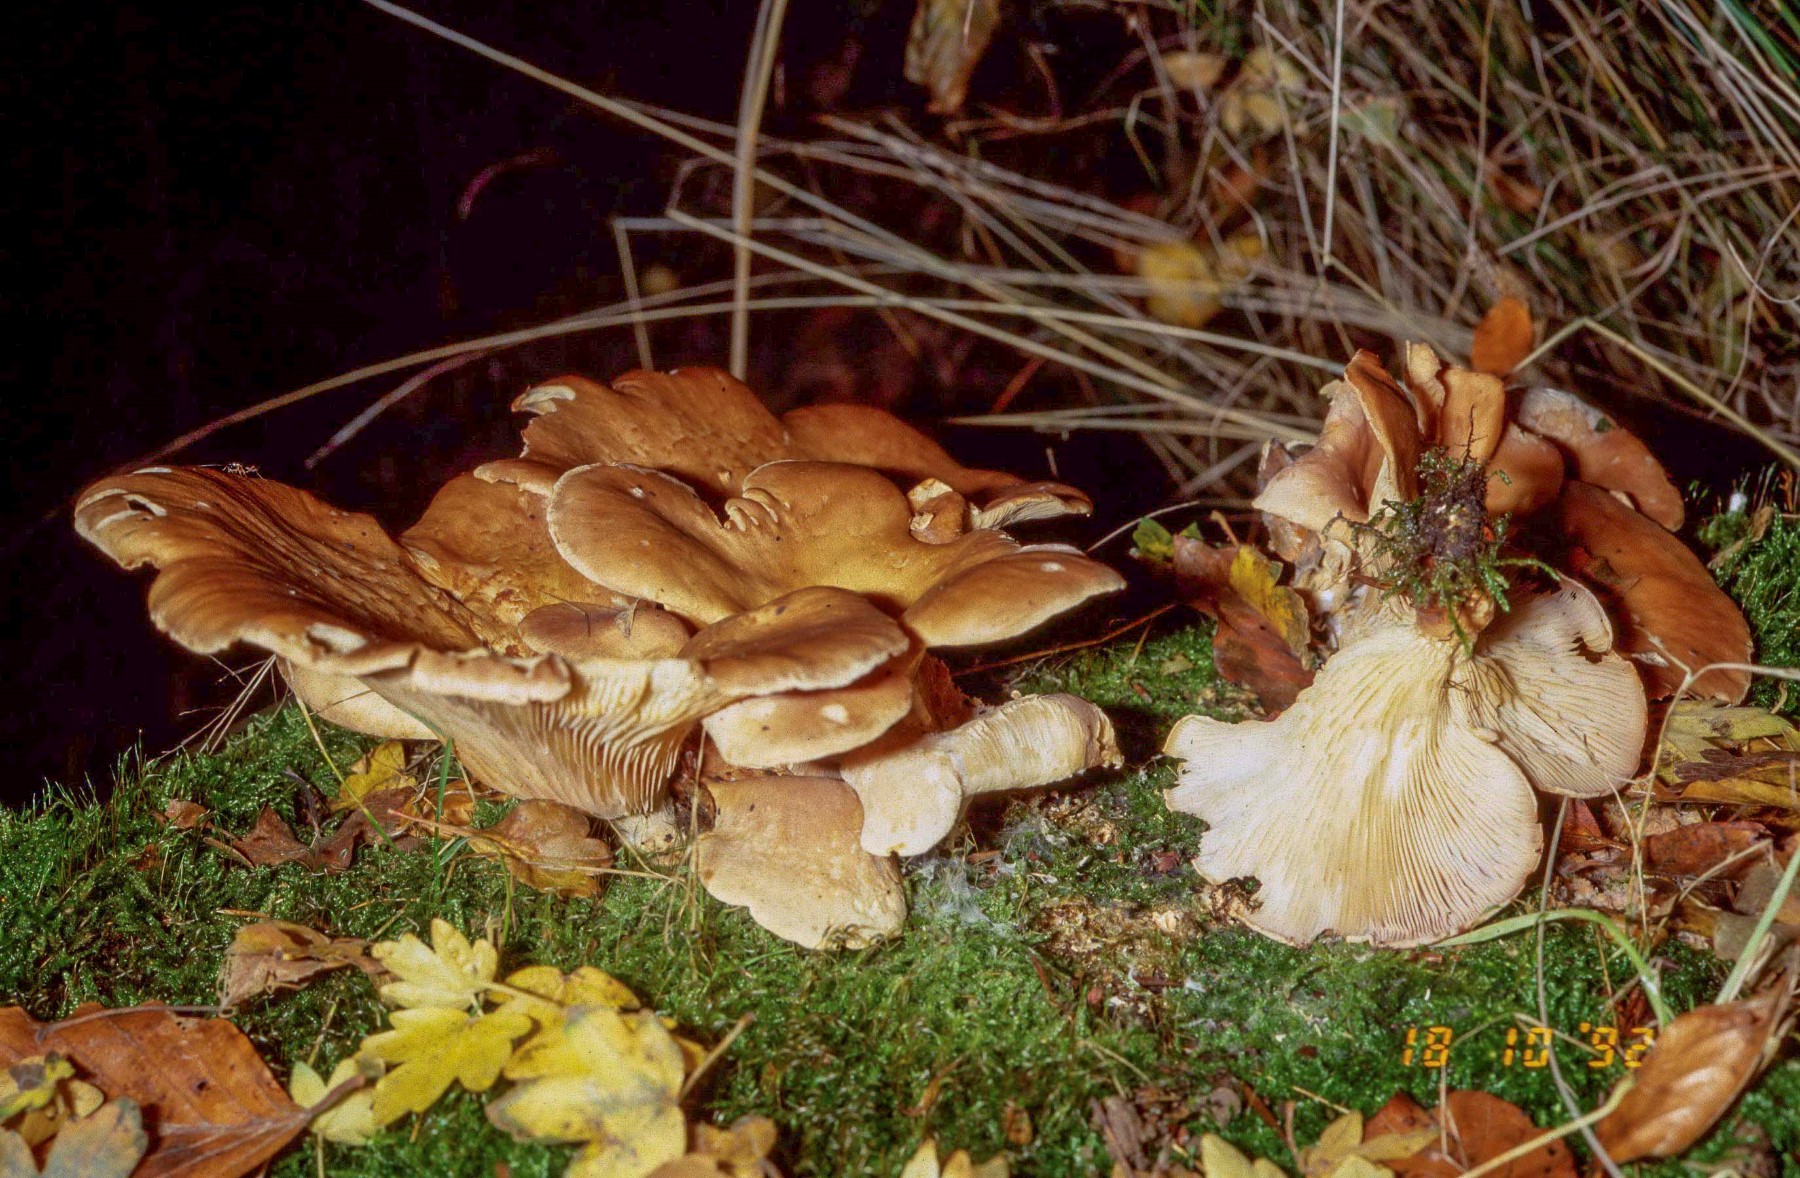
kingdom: Fungi
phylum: Basidiomycota
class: Agaricomycetes
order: Polyporales
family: Panaceae
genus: Panus
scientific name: Panus conchatus
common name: filtstokket læderhat
